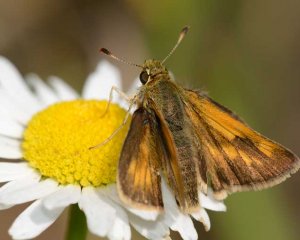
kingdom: Animalia
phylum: Arthropoda
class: Insecta
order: Lepidoptera
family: Hesperiidae
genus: Polites
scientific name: Polites
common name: Long Dash Skipper
